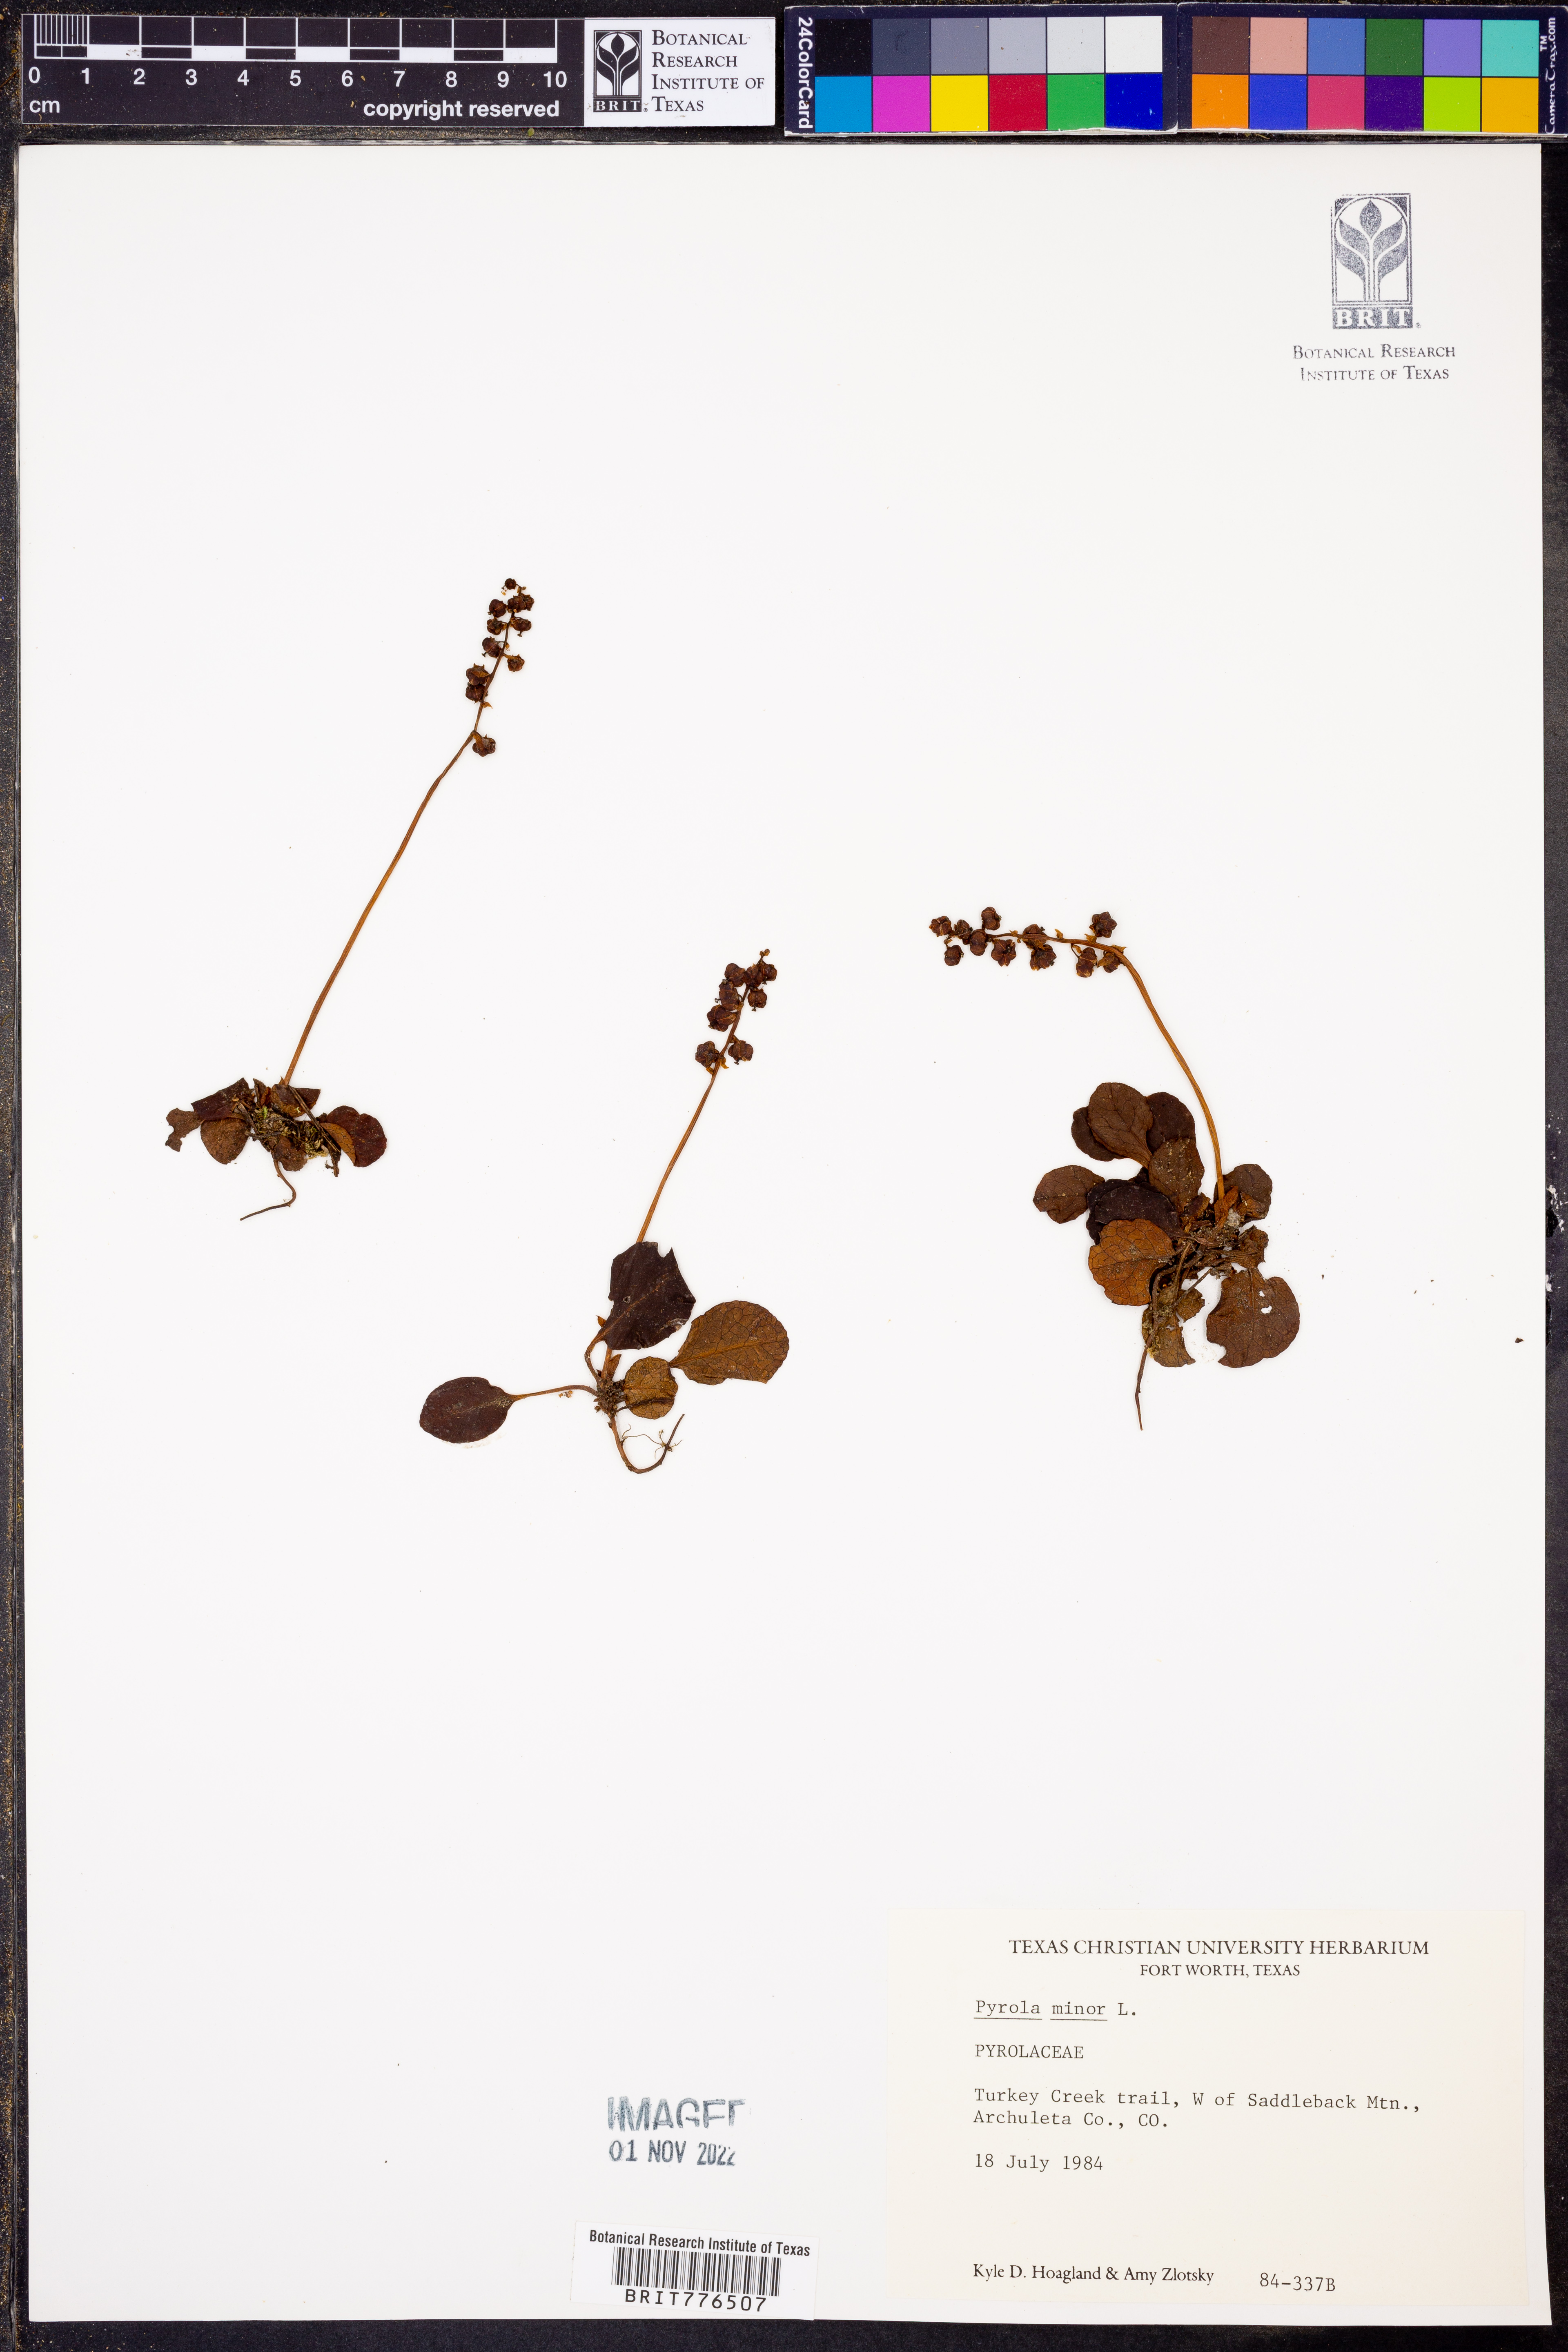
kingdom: Plantae
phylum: Tracheophyta
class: Magnoliopsida
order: Ericales
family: Ericaceae
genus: Pyrola
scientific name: Pyrola minor
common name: Common wintergreen
